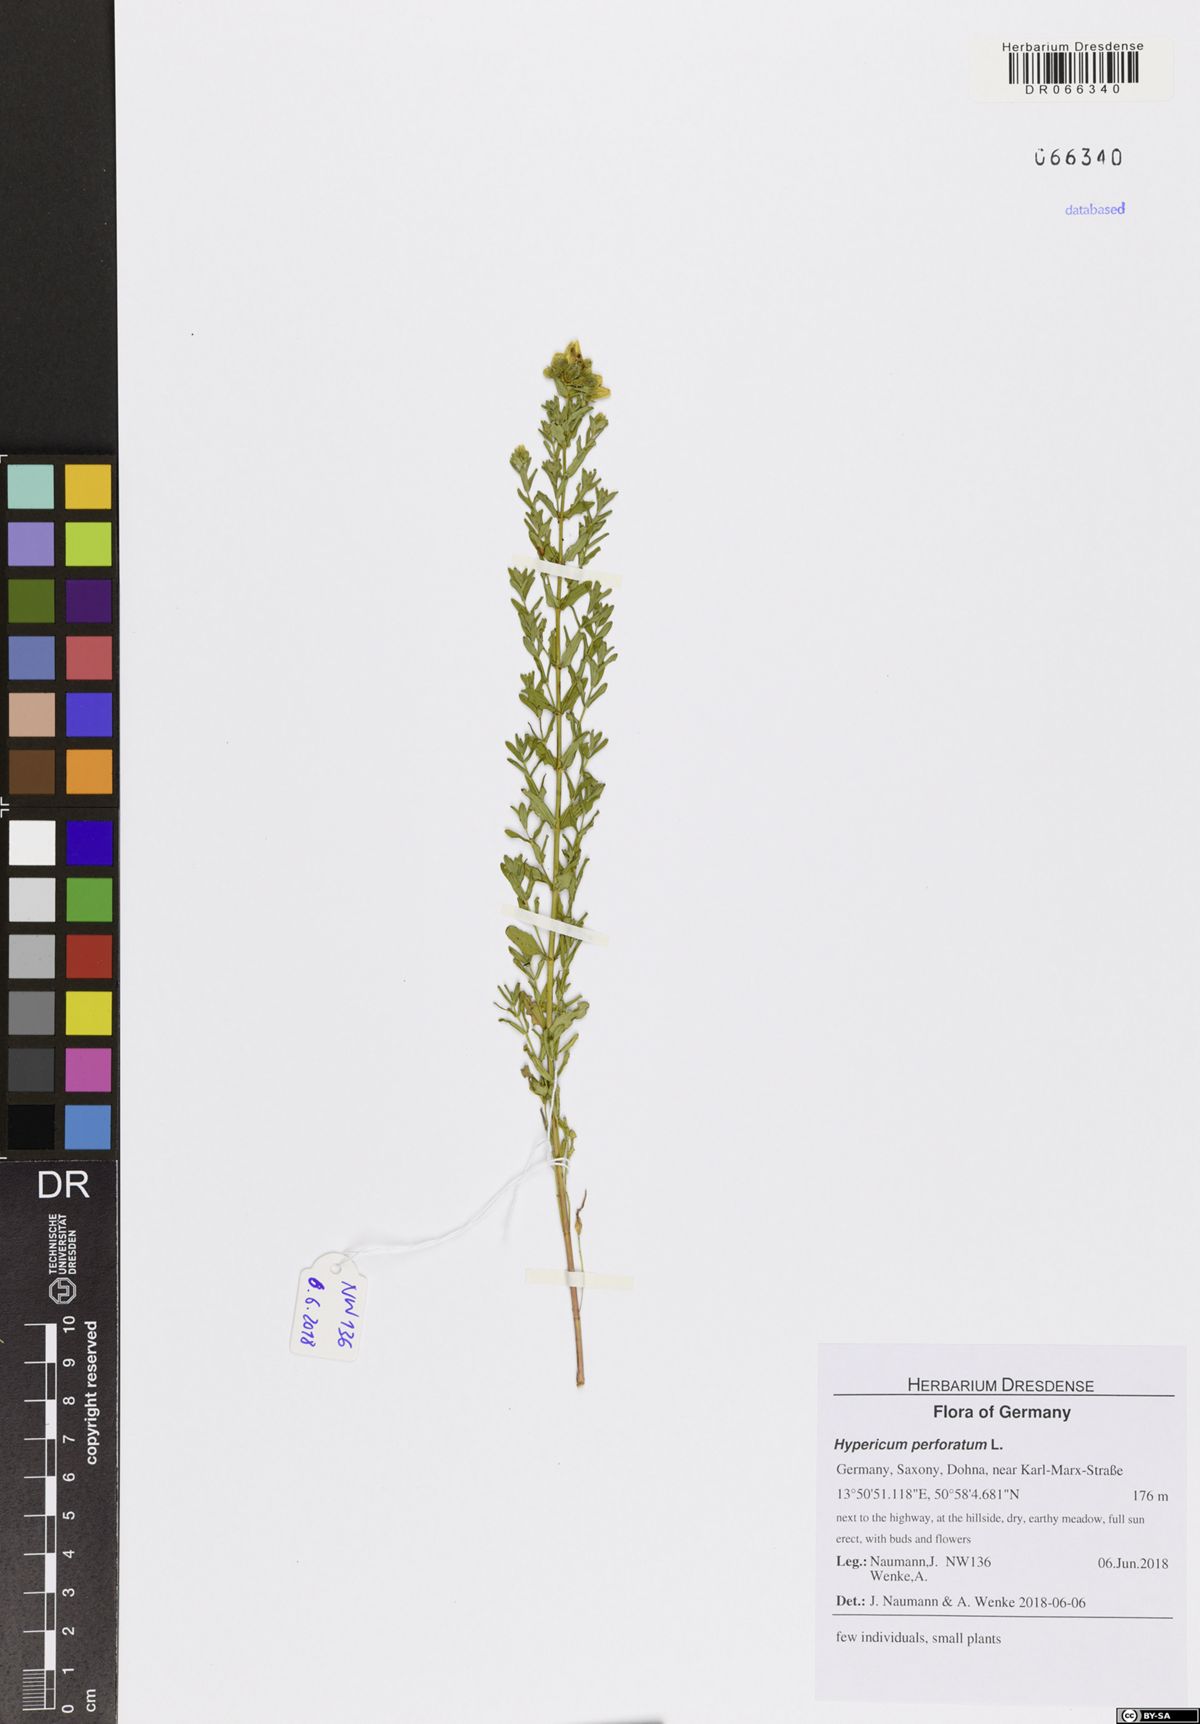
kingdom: Plantae
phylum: Tracheophyta
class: Magnoliopsida
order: Malpighiales
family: Hypericaceae
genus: Hypericum
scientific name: Hypericum perforatum
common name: Common st. johnswort
